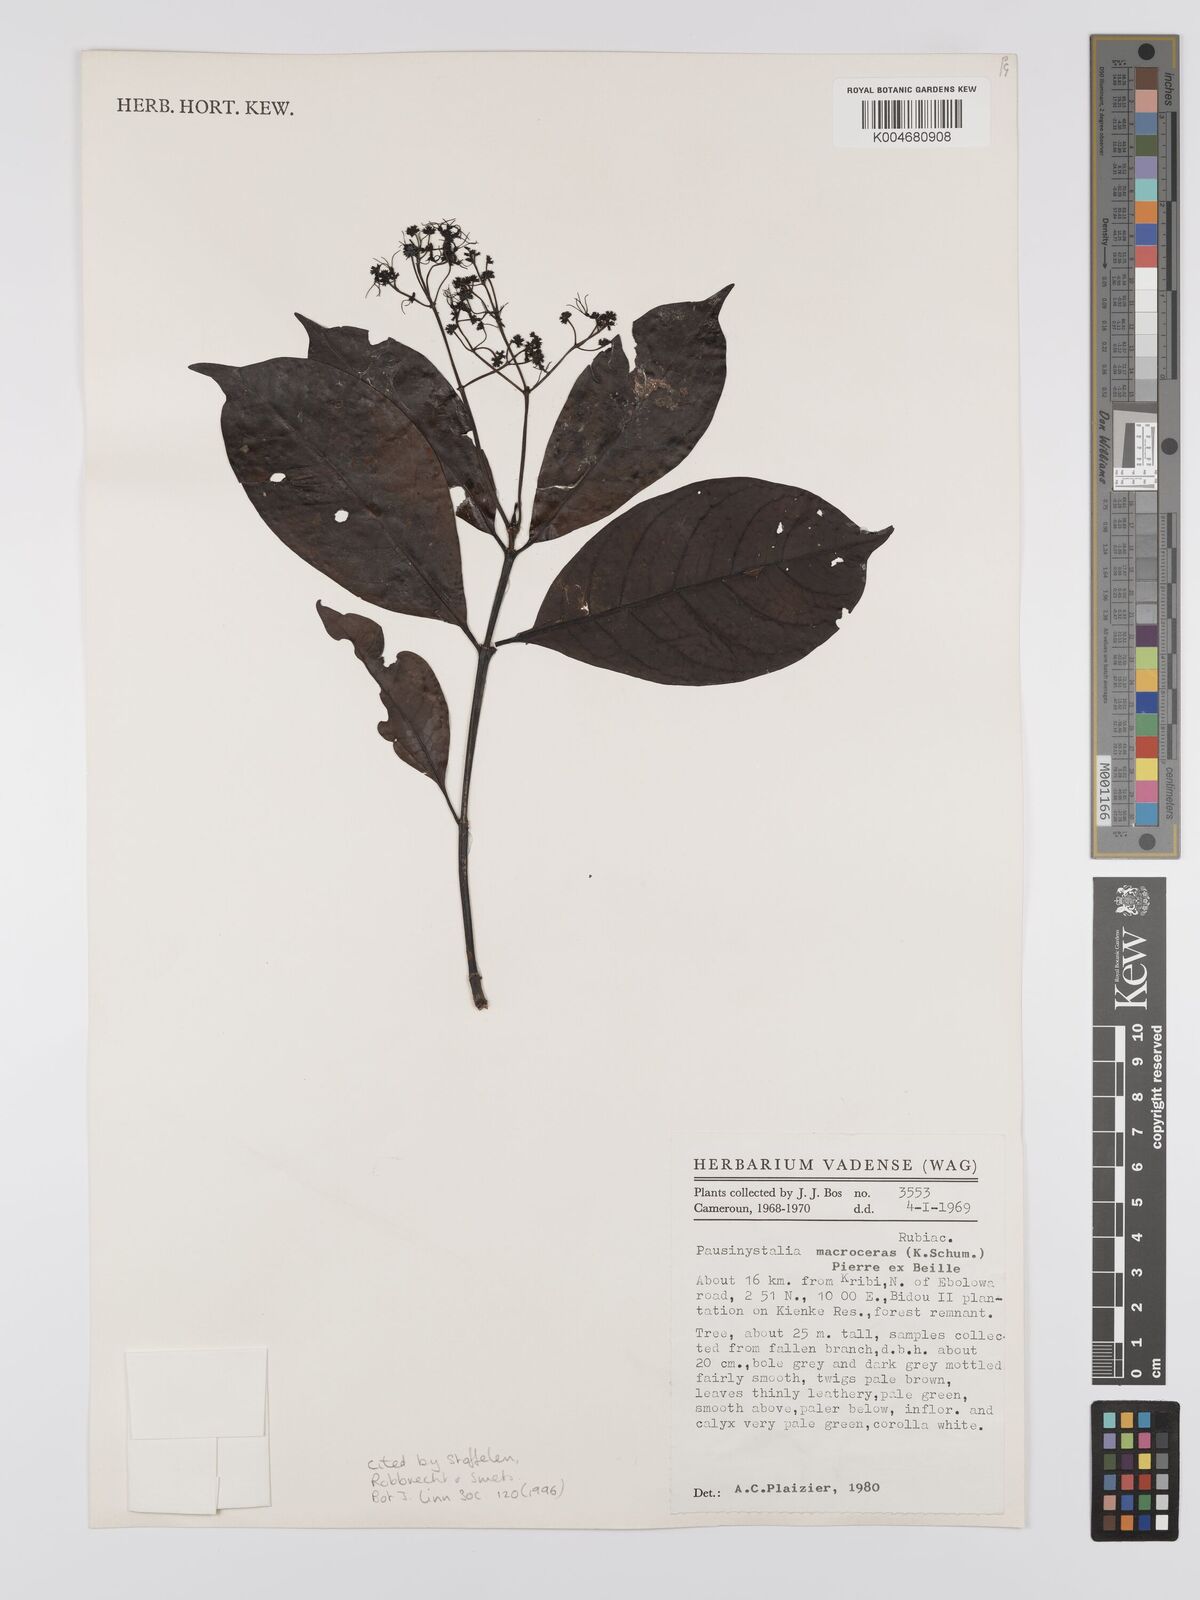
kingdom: Plantae
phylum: Tracheophyta
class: Magnoliopsida
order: Gentianales
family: Rubiaceae
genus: Corynanthe
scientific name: Corynanthe macroceras
